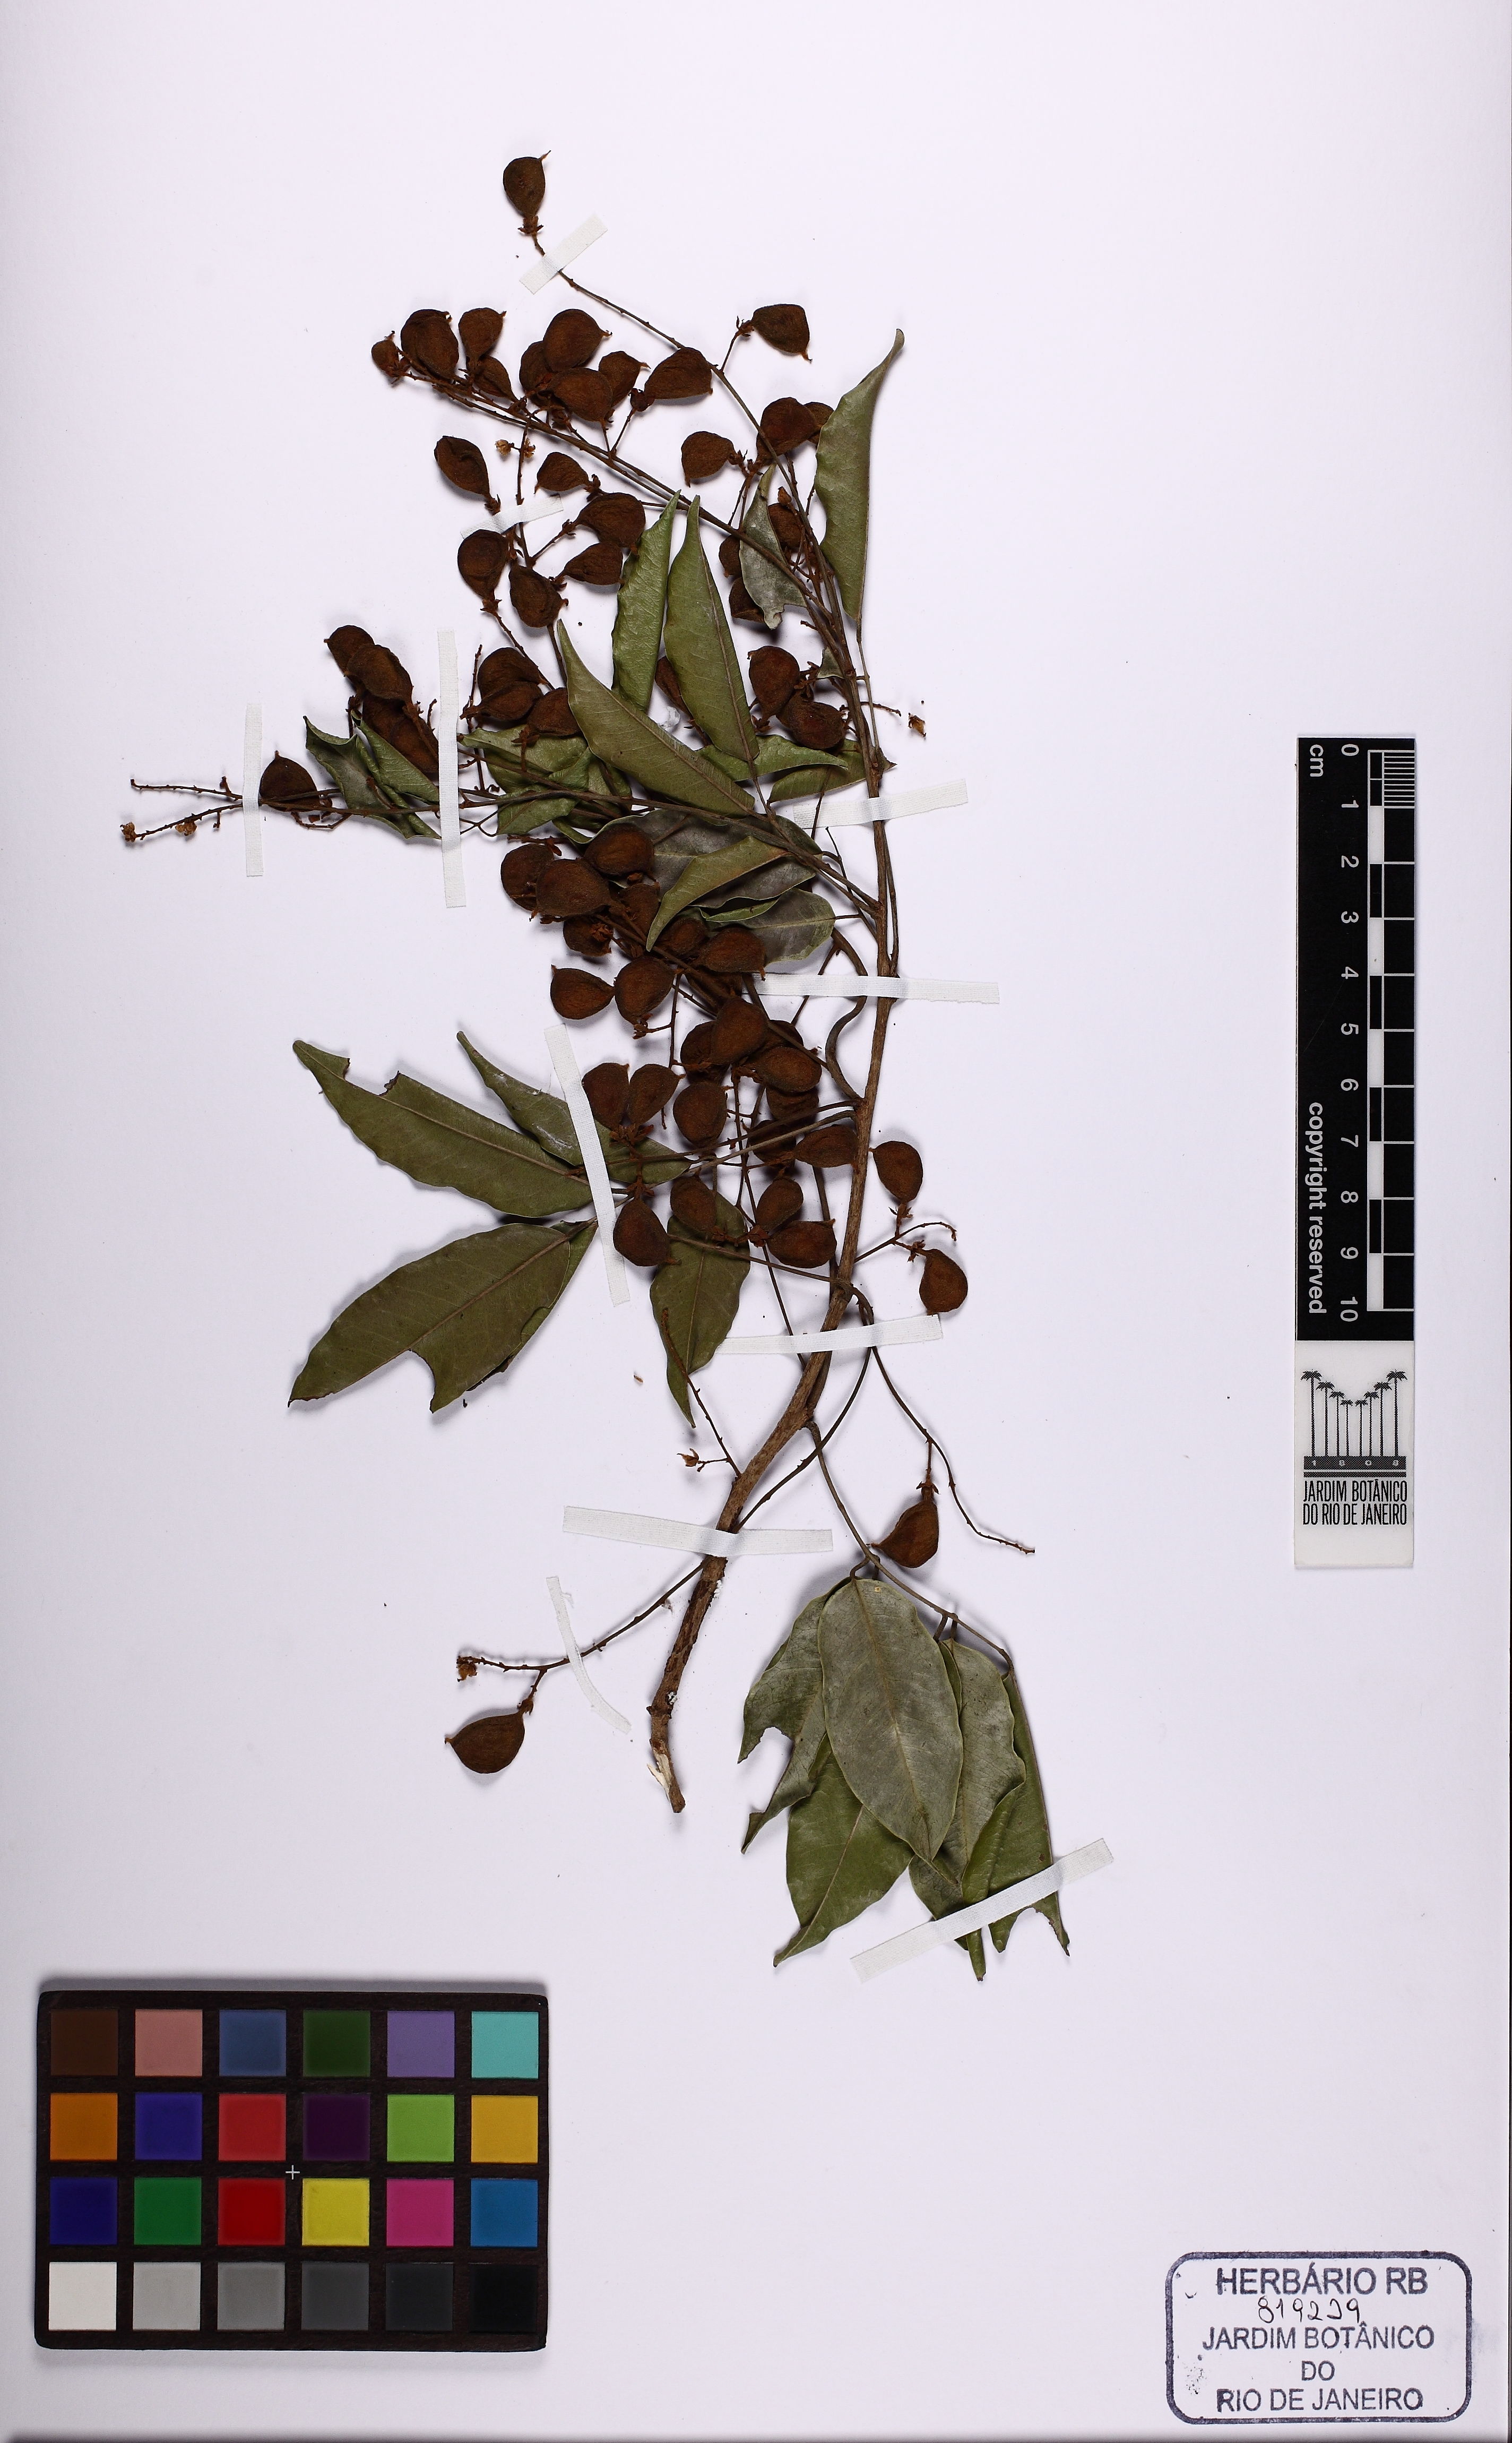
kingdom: Plantae
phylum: Tracheophyta
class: Magnoliopsida
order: Oxalidales
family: Connaraceae
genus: Connarus
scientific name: Connarus
